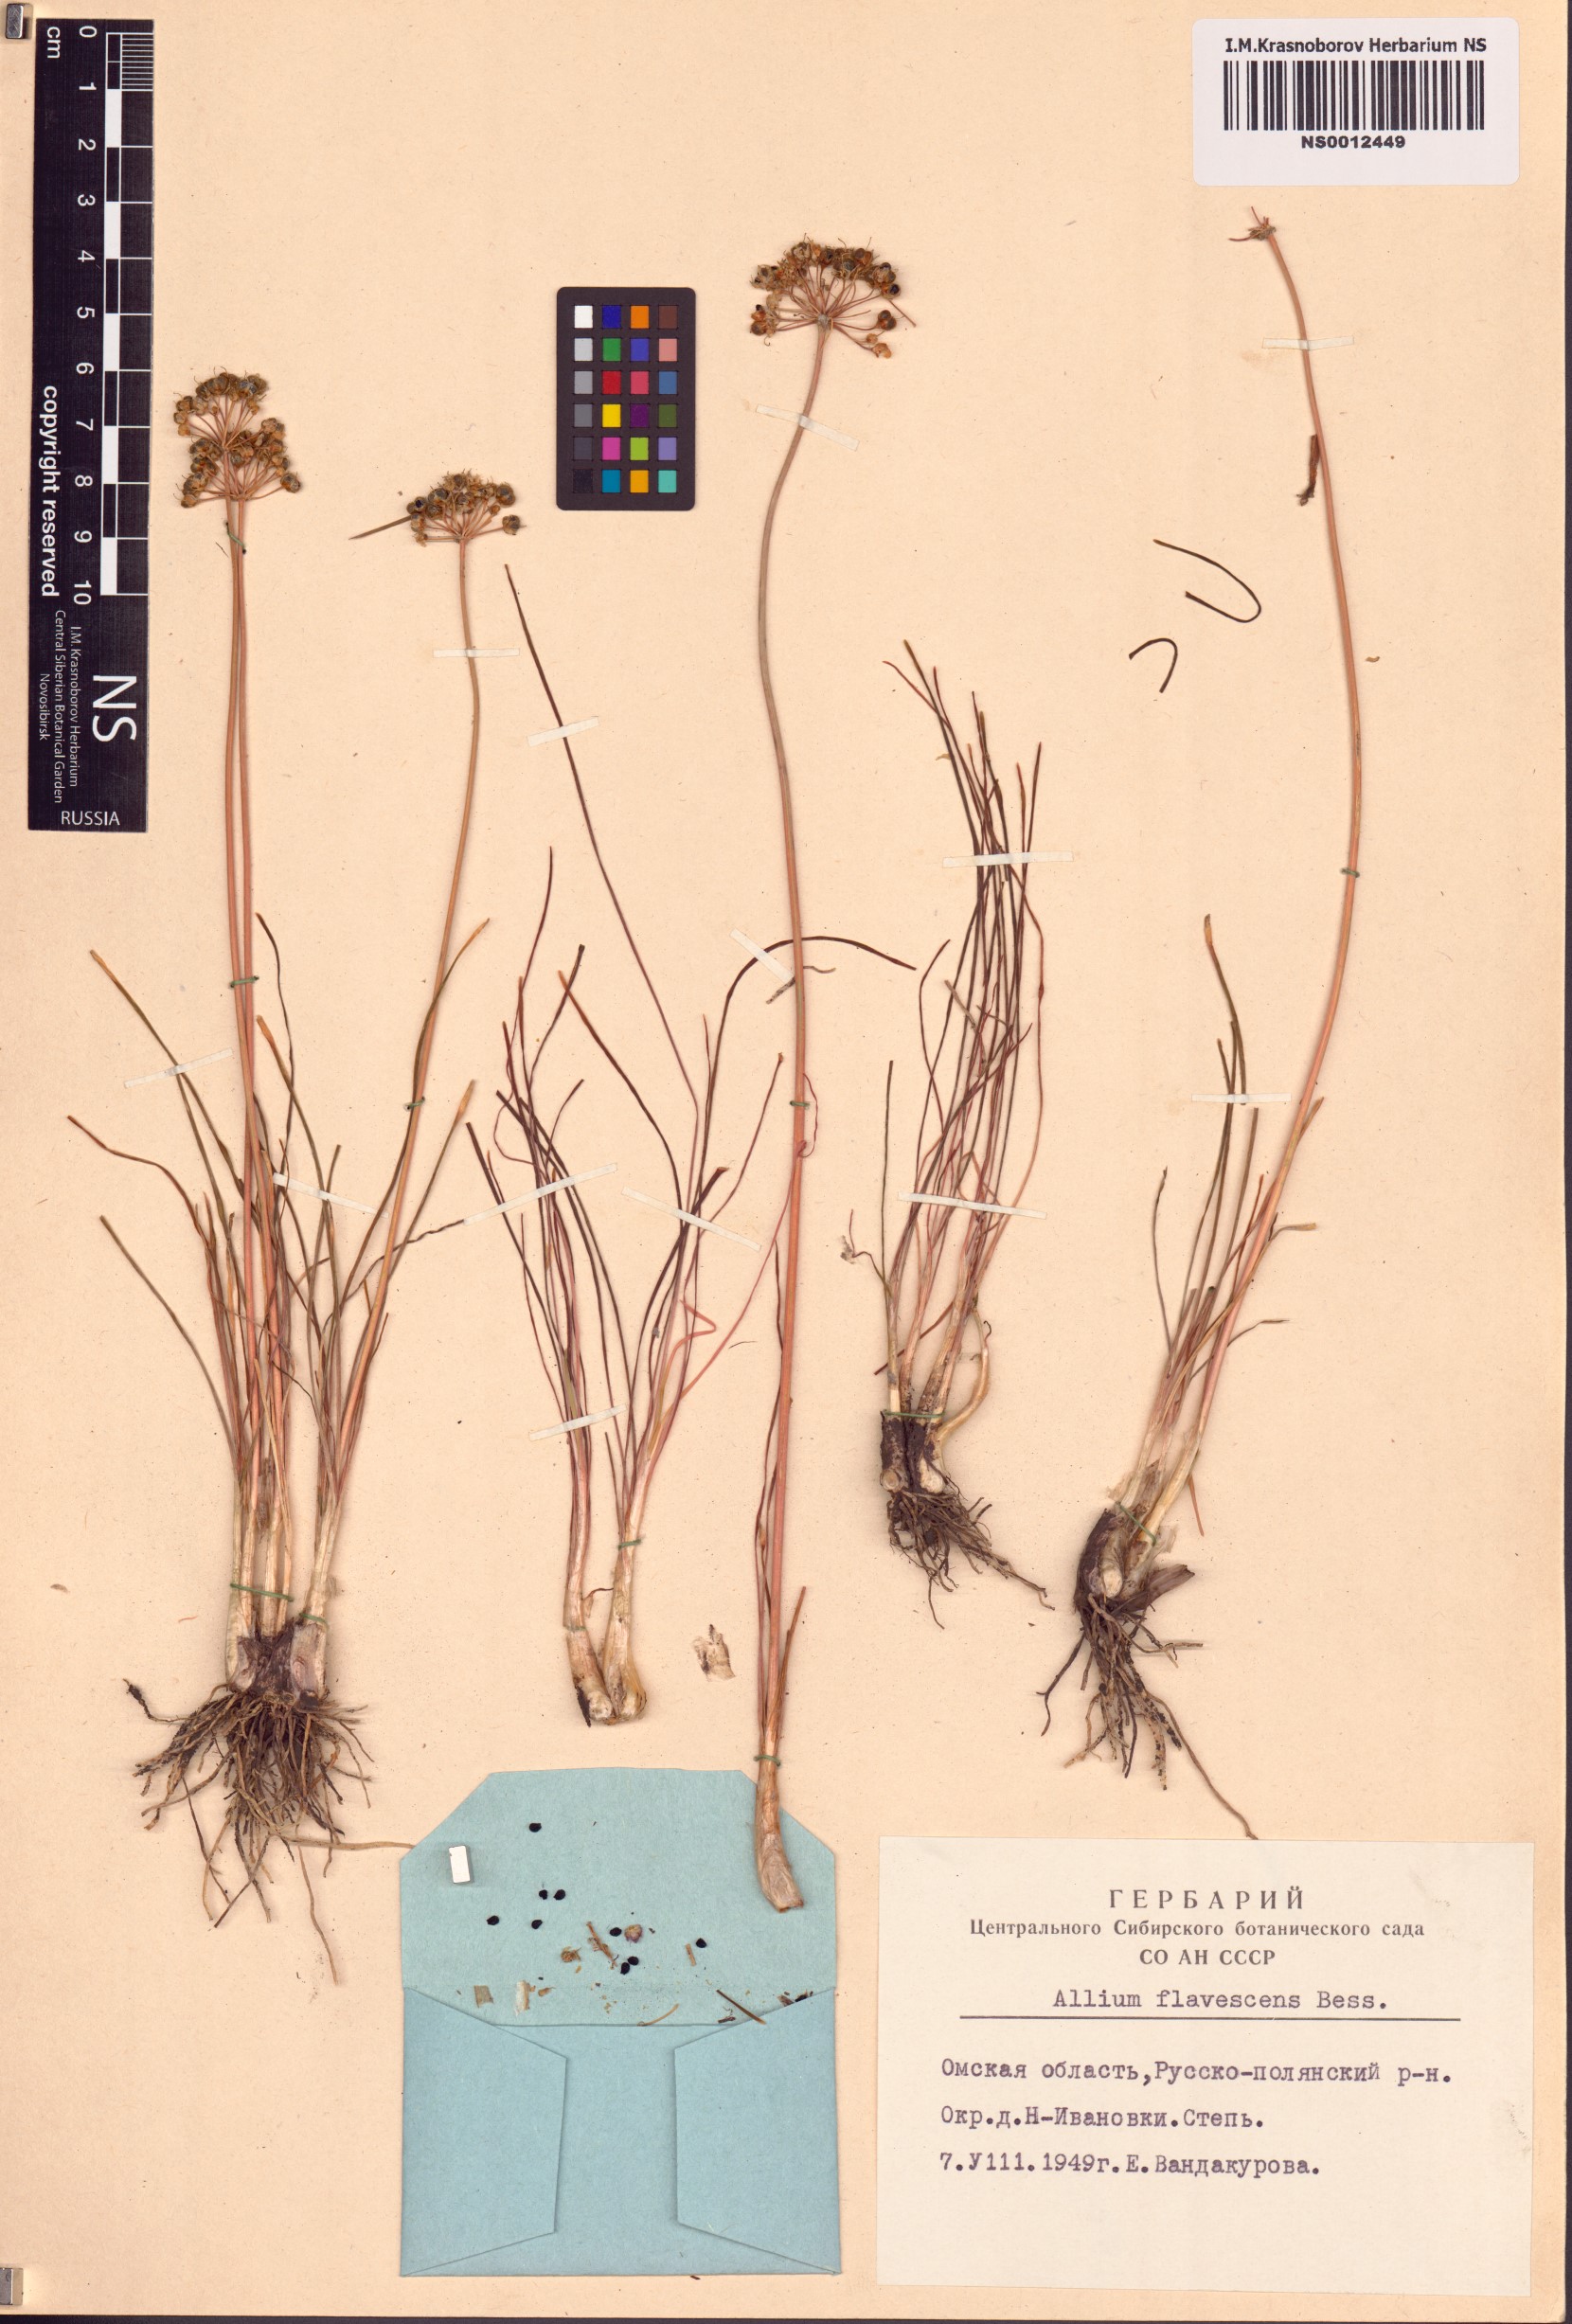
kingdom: Plantae
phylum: Tracheophyta
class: Liliopsida
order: Asparagales
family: Amaryllidaceae
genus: Allium
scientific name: Allium flavescens
